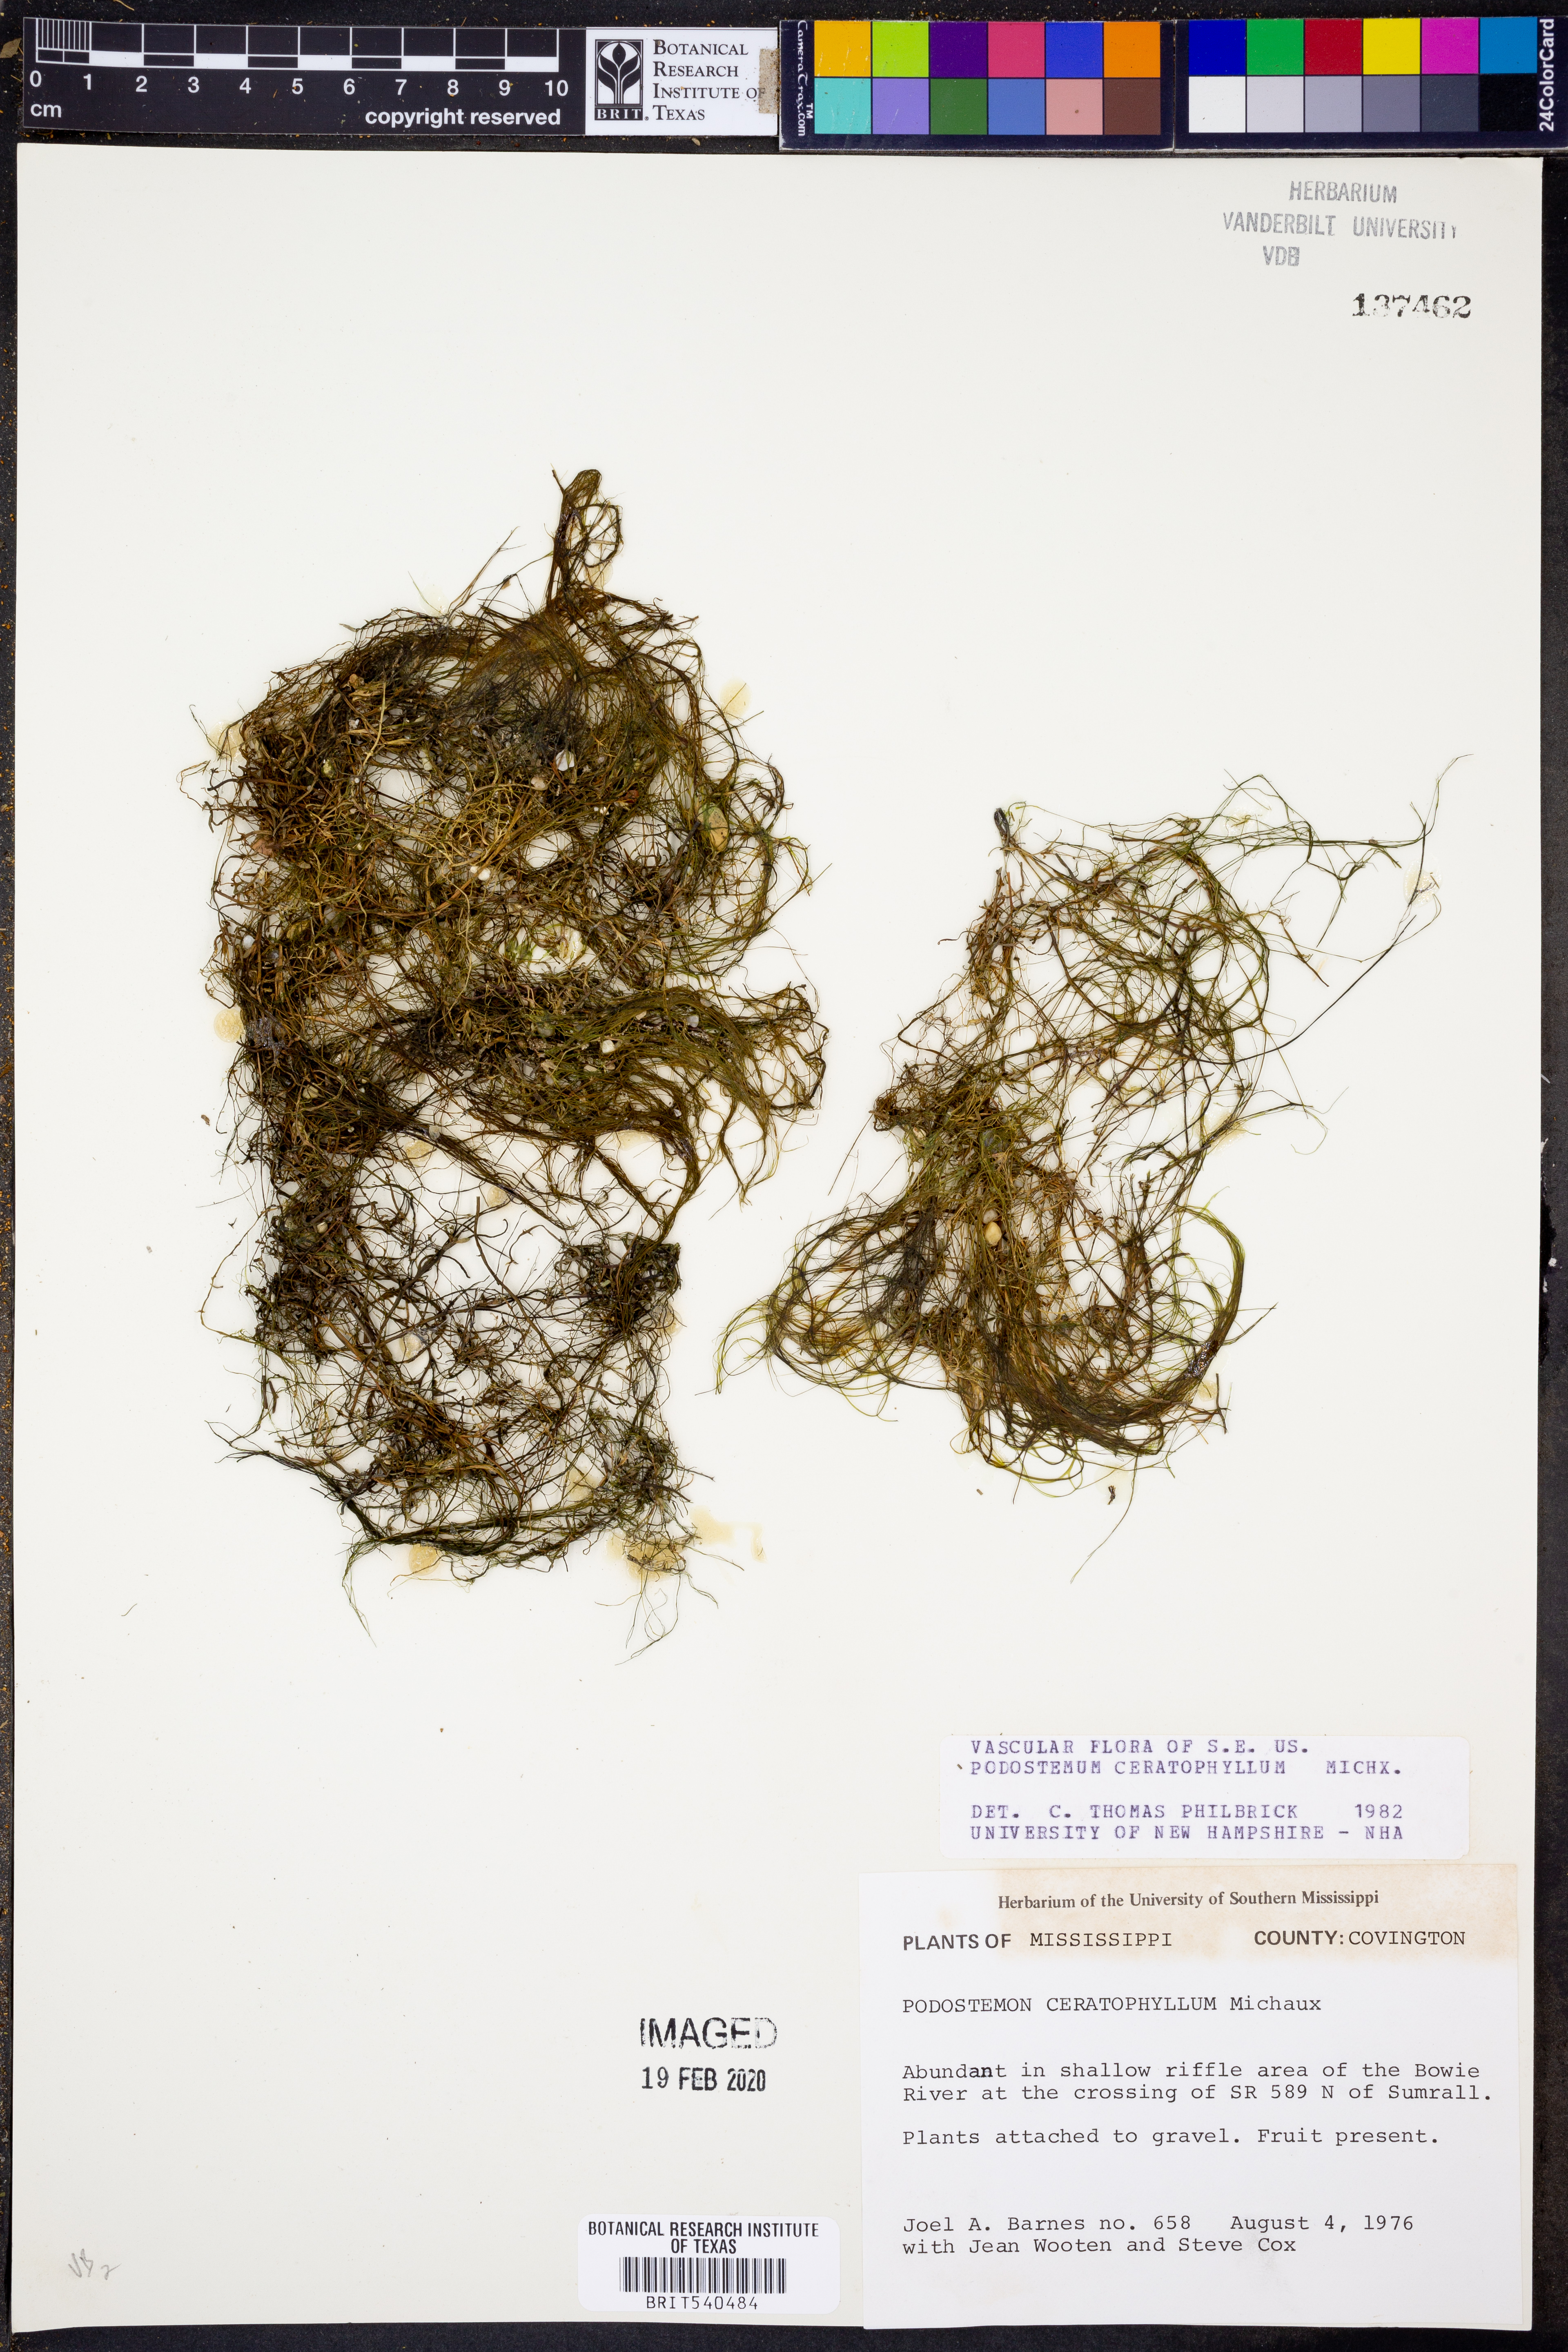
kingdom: Plantae
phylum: Tracheophyta
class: Magnoliopsida
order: Malpighiales
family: Podostemaceae
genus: Podostemum
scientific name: Podostemum ceratophyllum
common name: Horn-leaved riverweed
